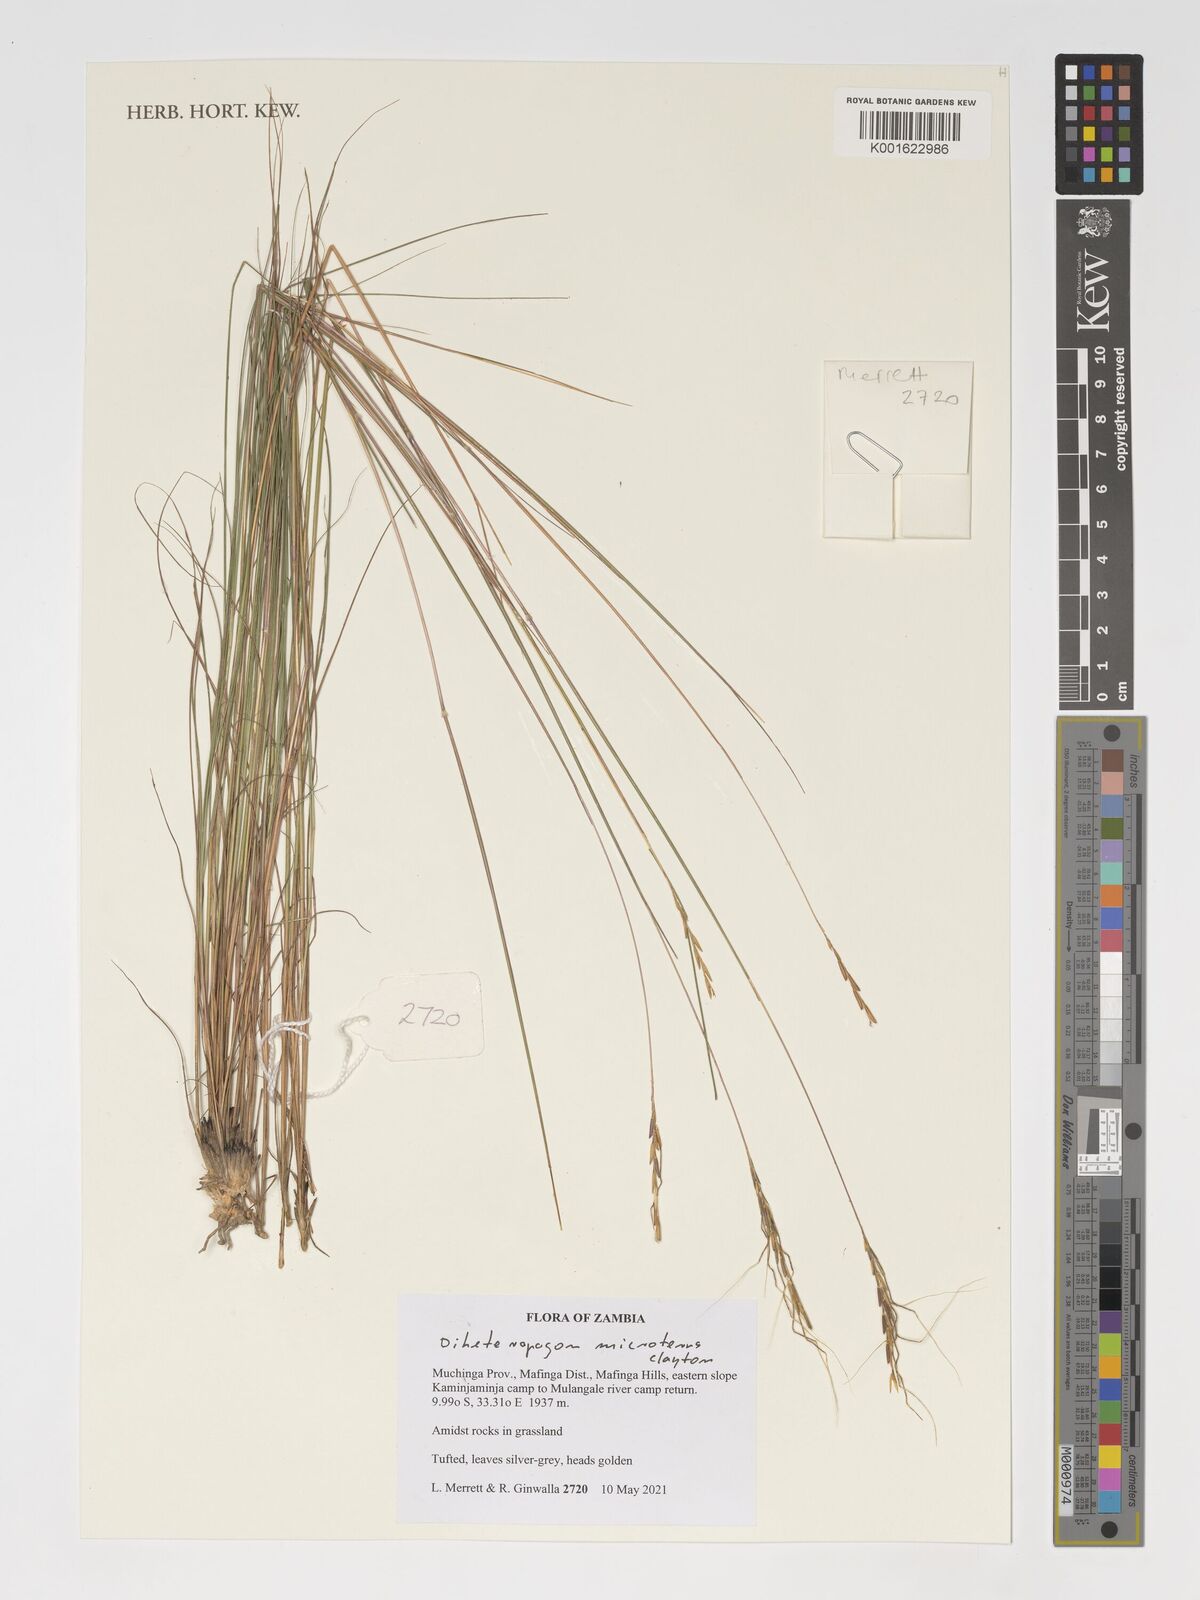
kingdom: Plantae
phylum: Tracheophyta
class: Liliopsida
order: Poales
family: Poaceae
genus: Diheteropogon
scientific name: Diheteropogon microterus
